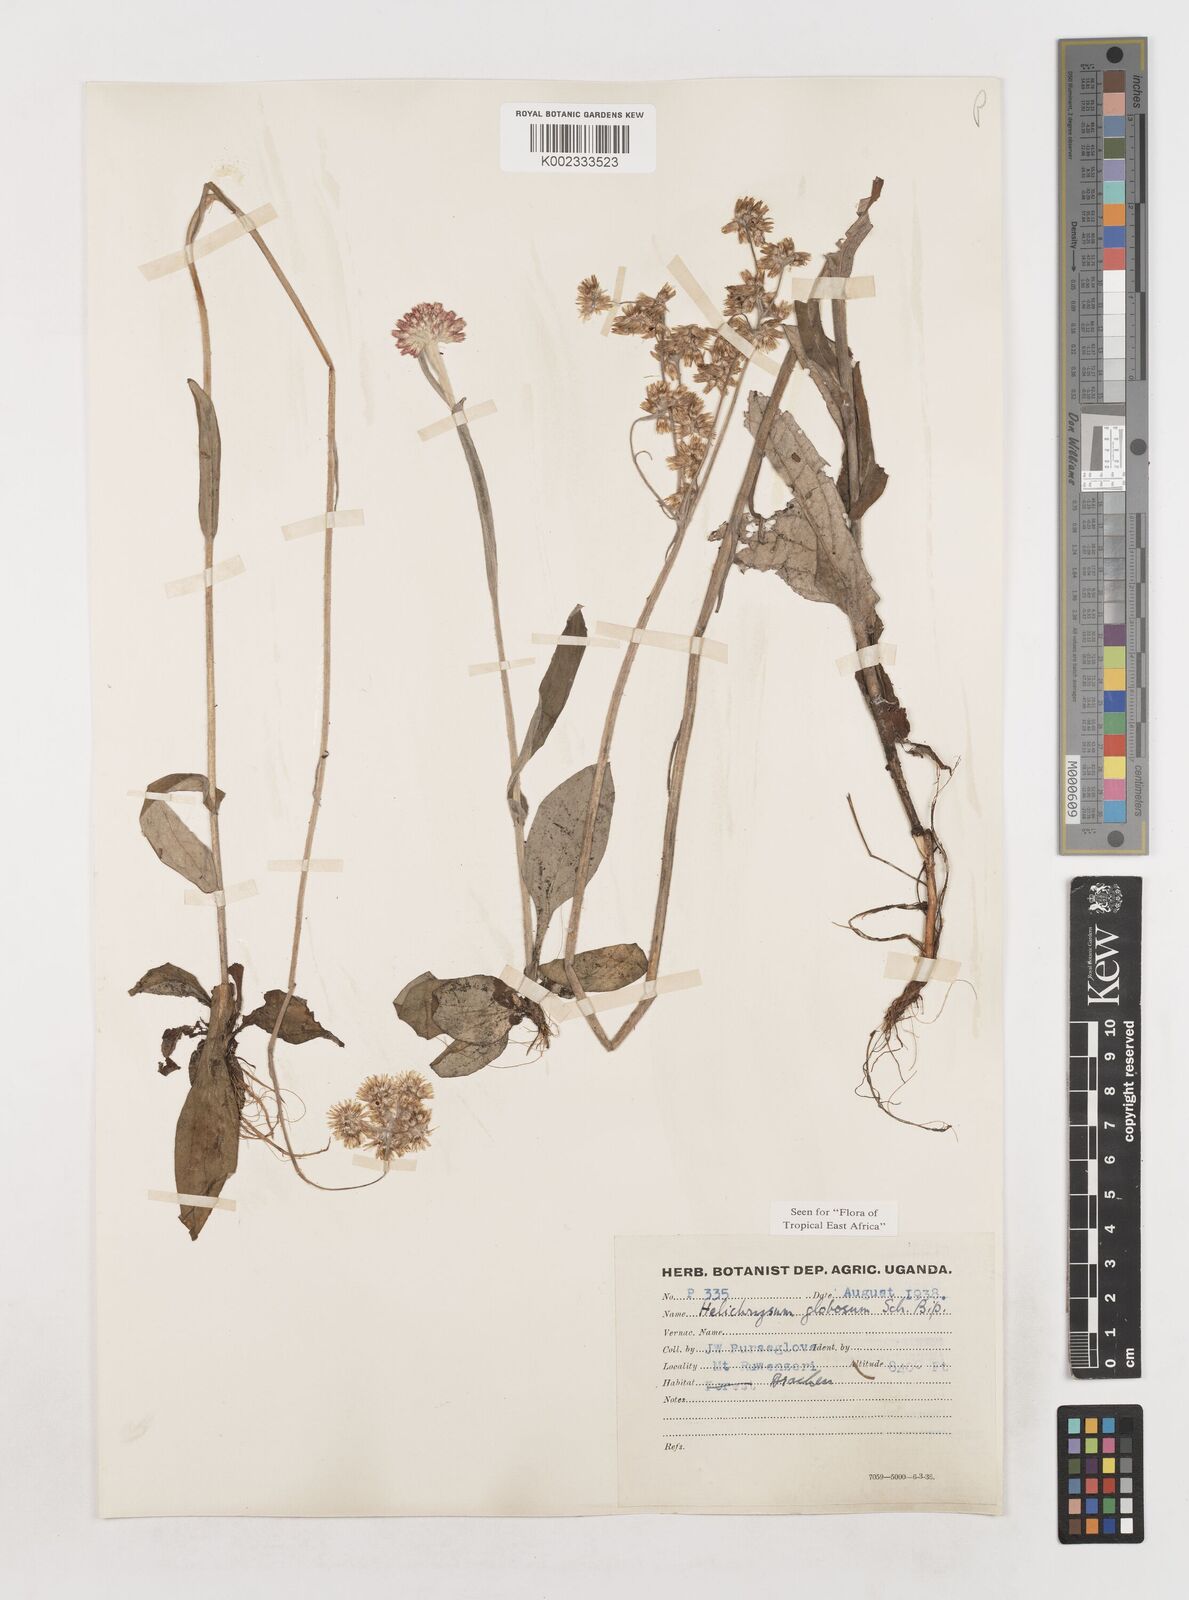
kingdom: Plantae
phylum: Tracheophyta
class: Magnoliopsida
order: Asterales
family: Asteraceae
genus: Helichrysum
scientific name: Helichrysum globosum
